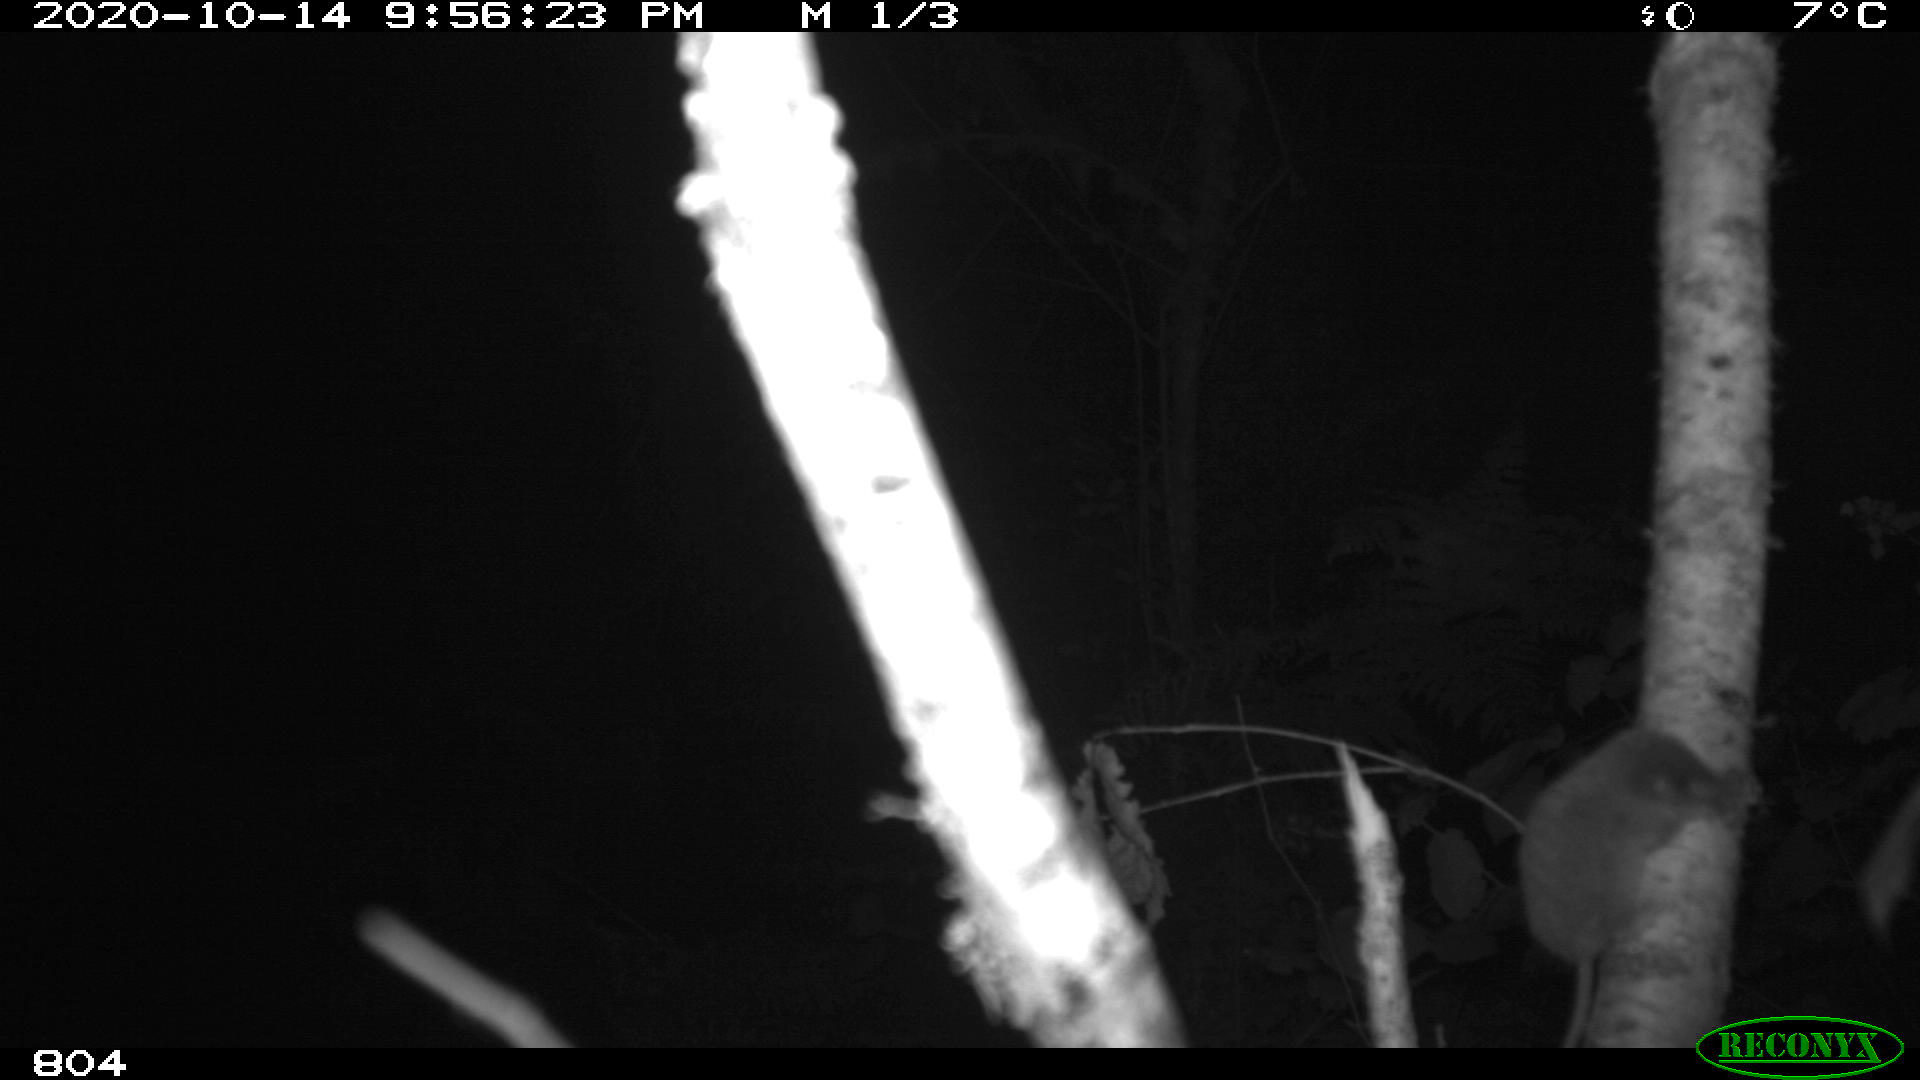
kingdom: Animalia
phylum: Chordata
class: Mammalia
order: Rodentia
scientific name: Rodentia
